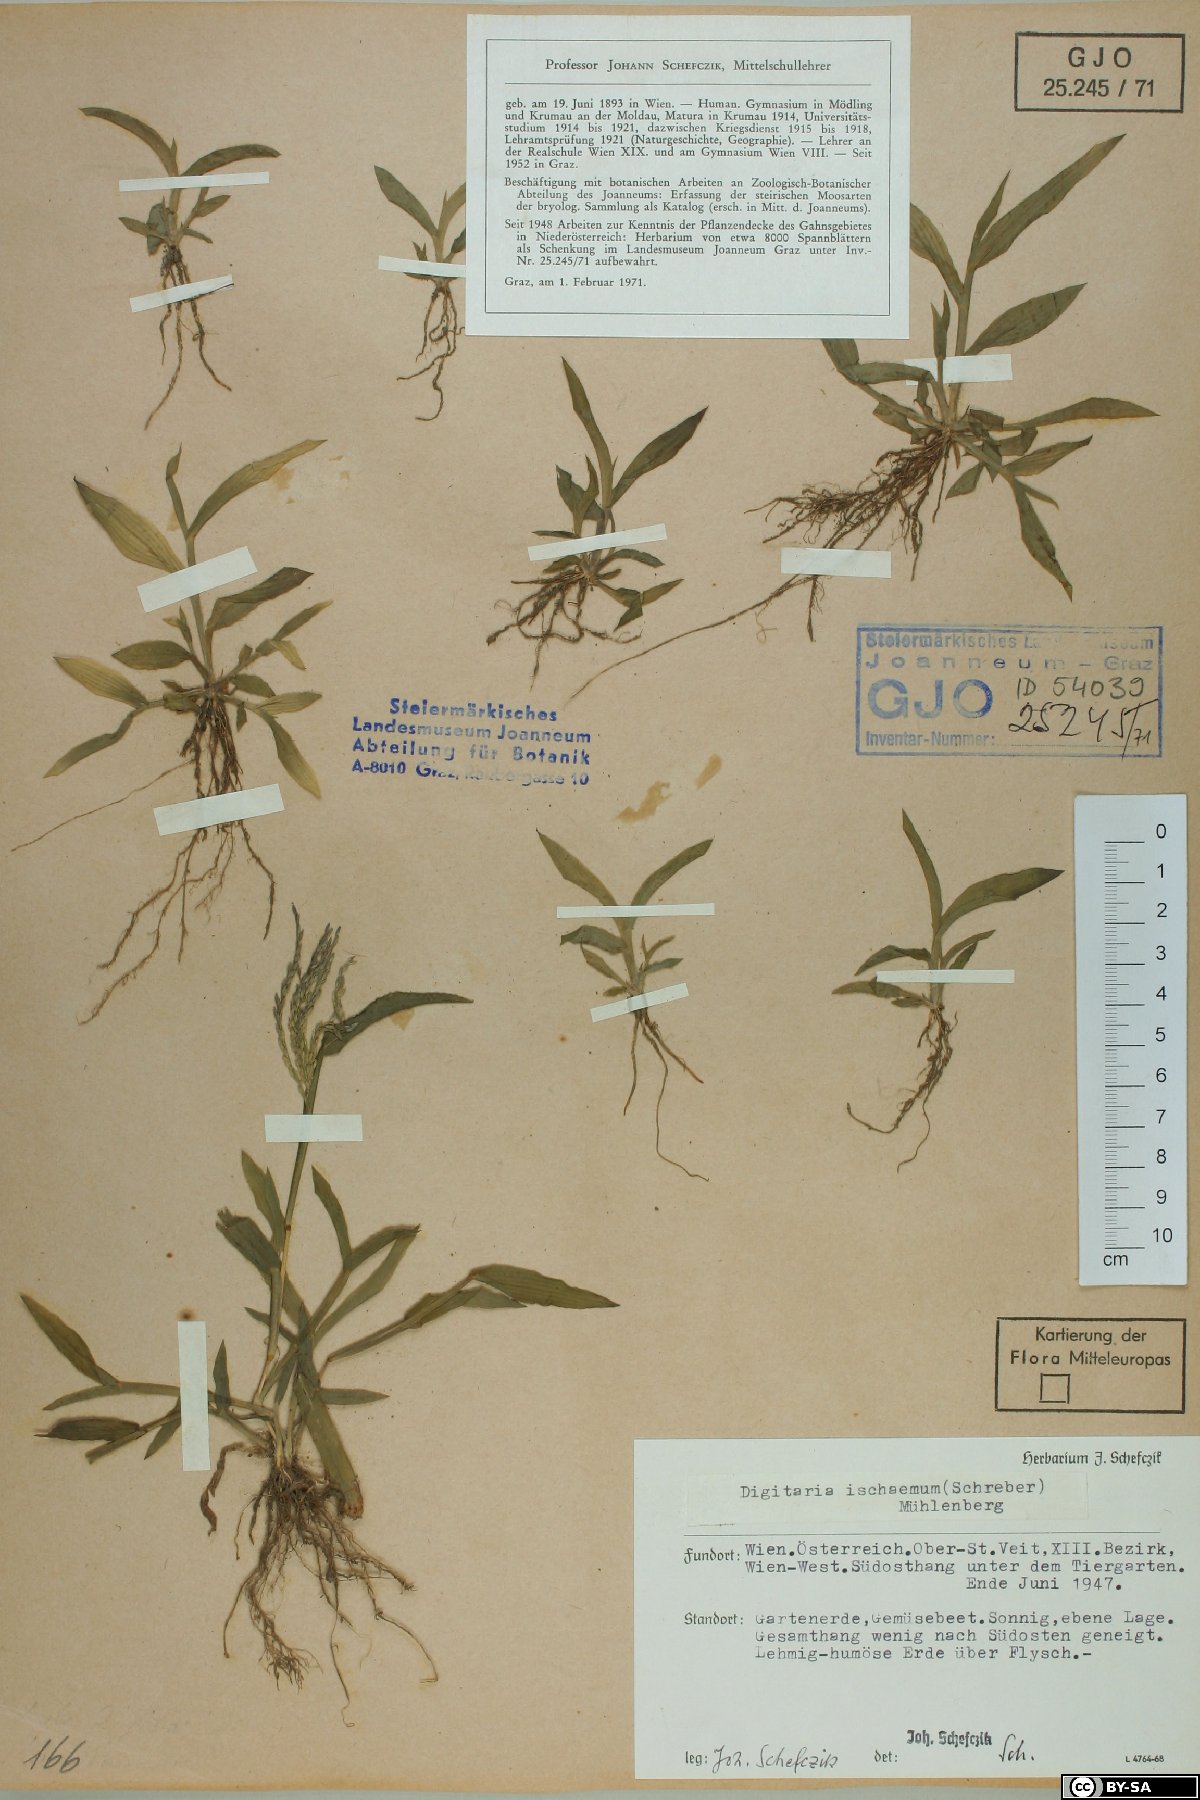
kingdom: Plantae
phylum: Tracheophyta
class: Liliopsida
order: Poales
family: Poaceae
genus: Digitaria
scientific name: Digitaria ischaemum
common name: Smooth crabgrass
